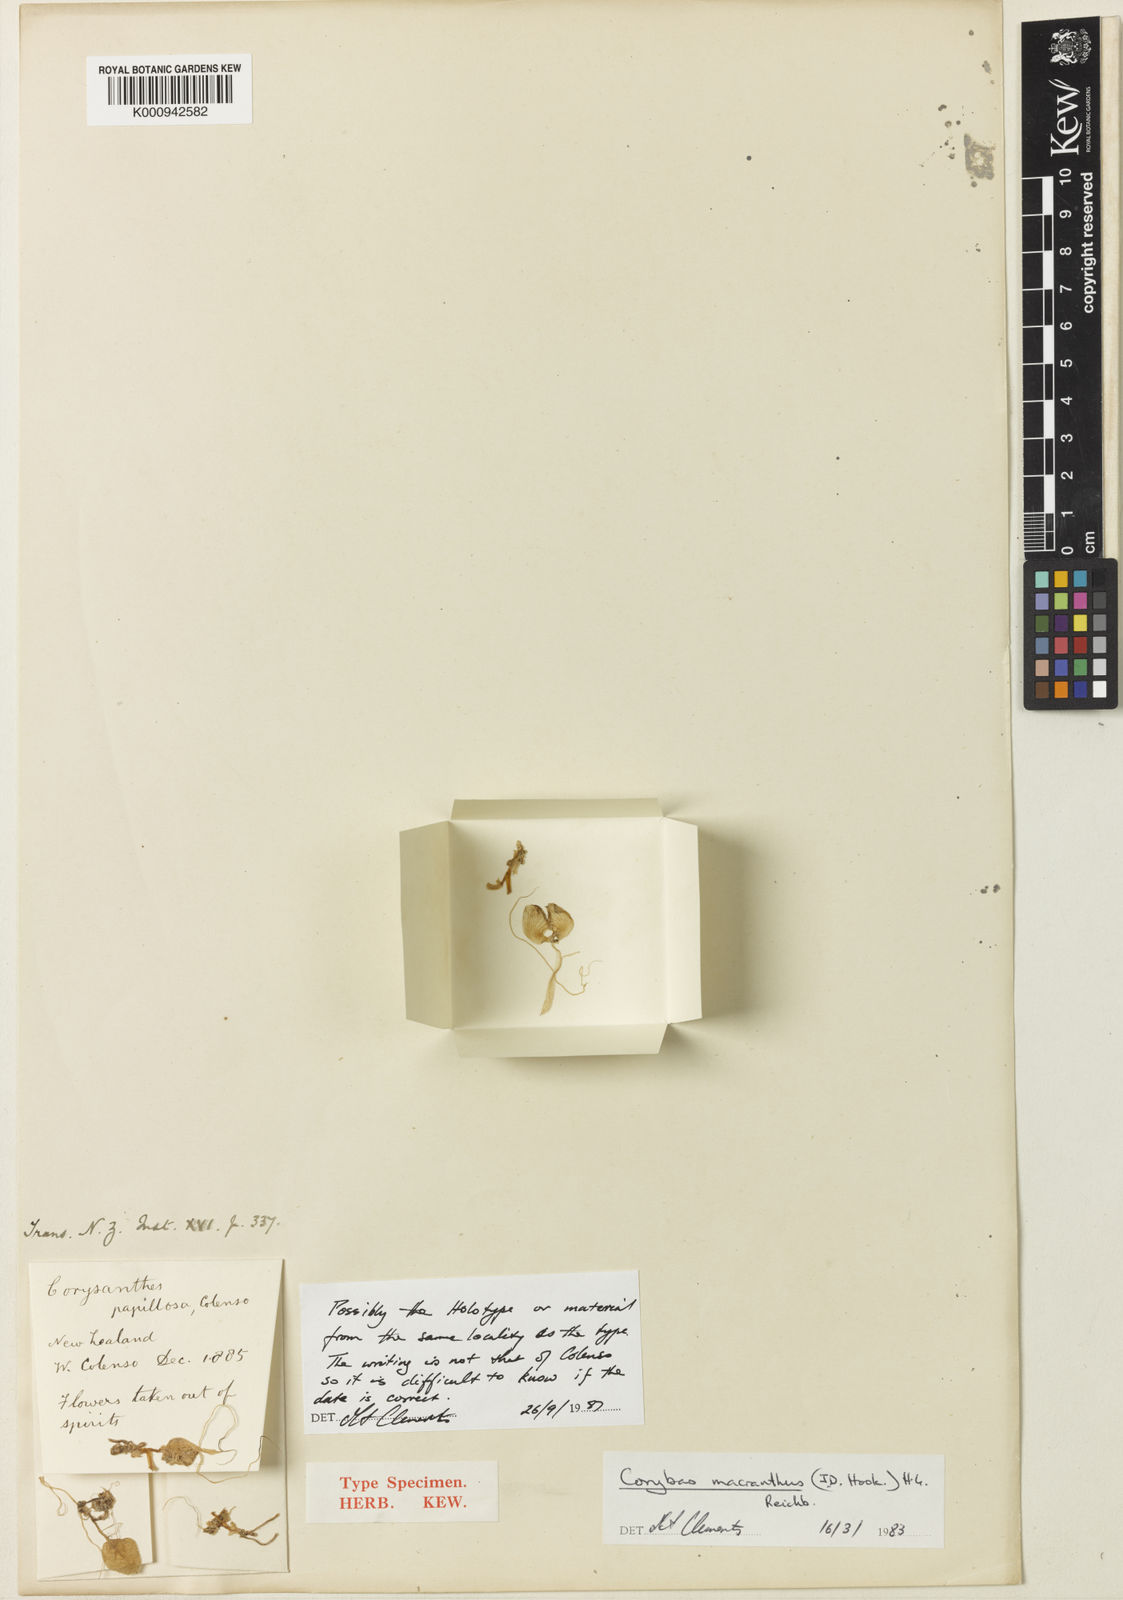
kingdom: Plantae
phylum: Tracheophyta
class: Liliopsida
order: Asparagales
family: Orchidaceae
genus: Corybas
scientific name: Corybas macranthus
